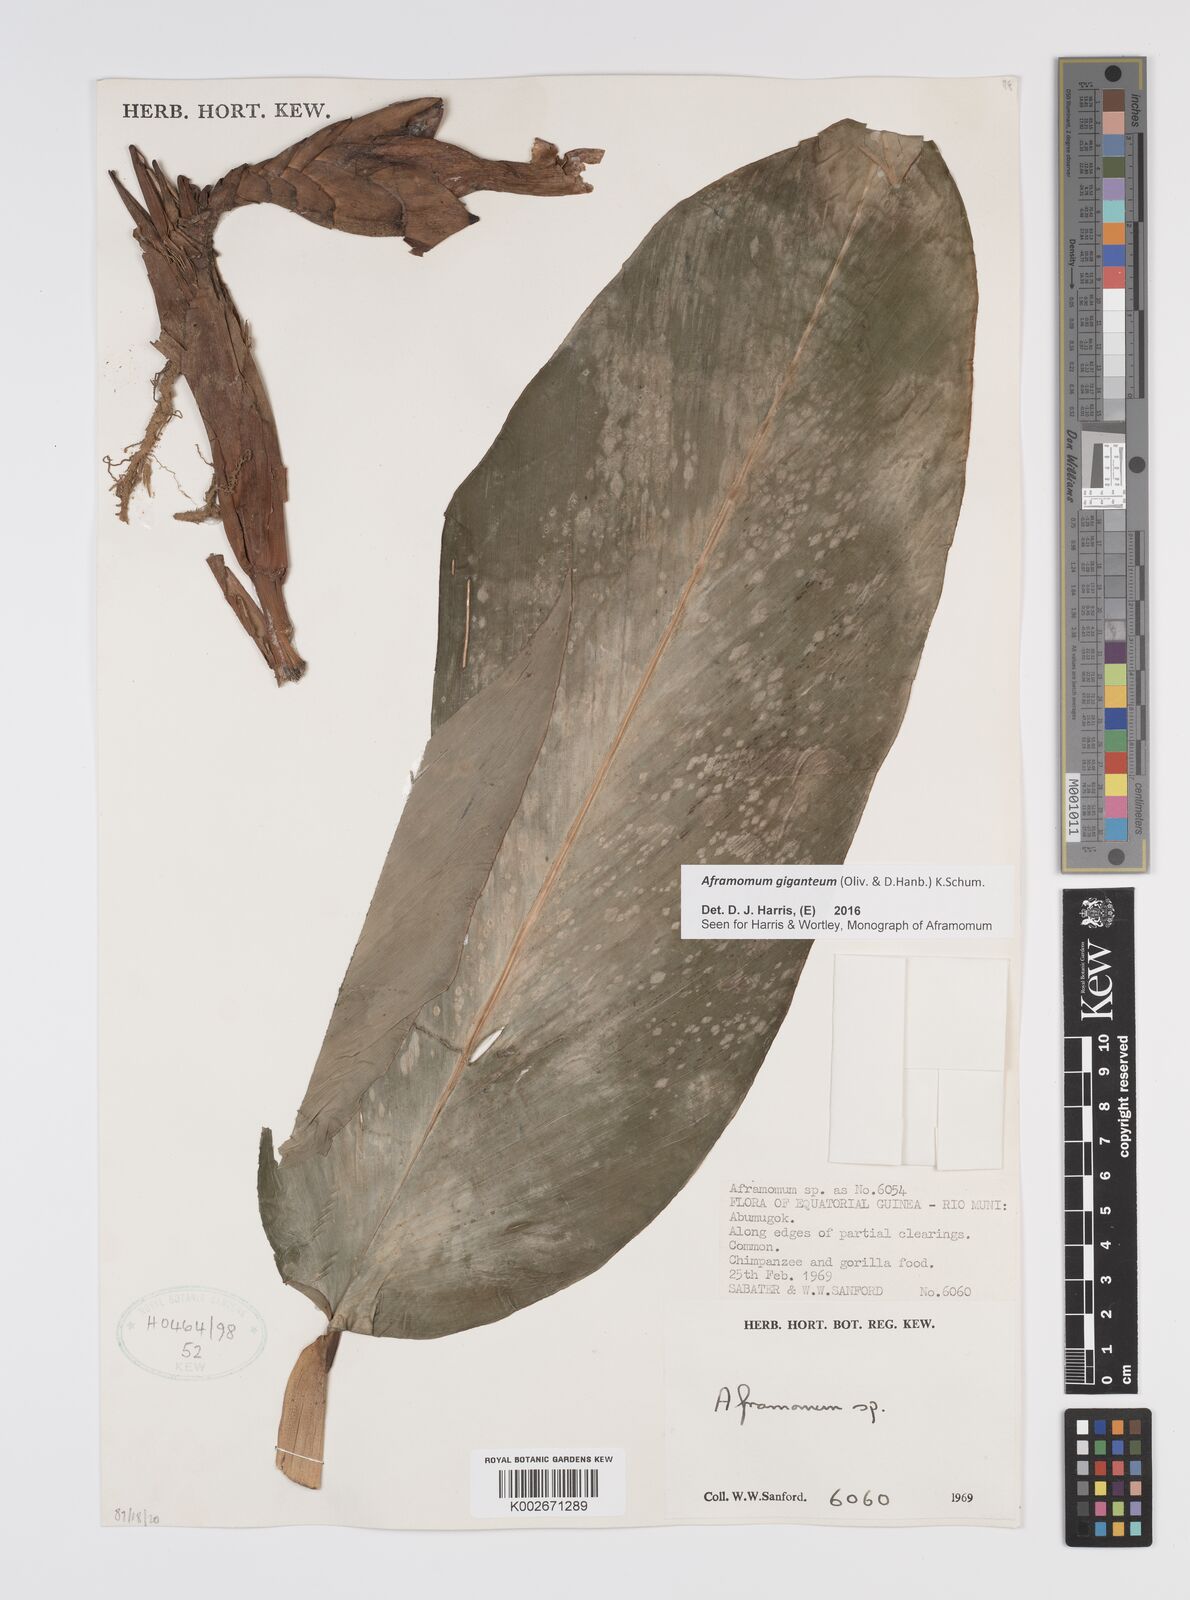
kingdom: Plantae
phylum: Tracheophyta
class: Liliopsida
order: Zingiberales
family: Zingiberaceae
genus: Aframomum
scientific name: Aframomum giganteum
